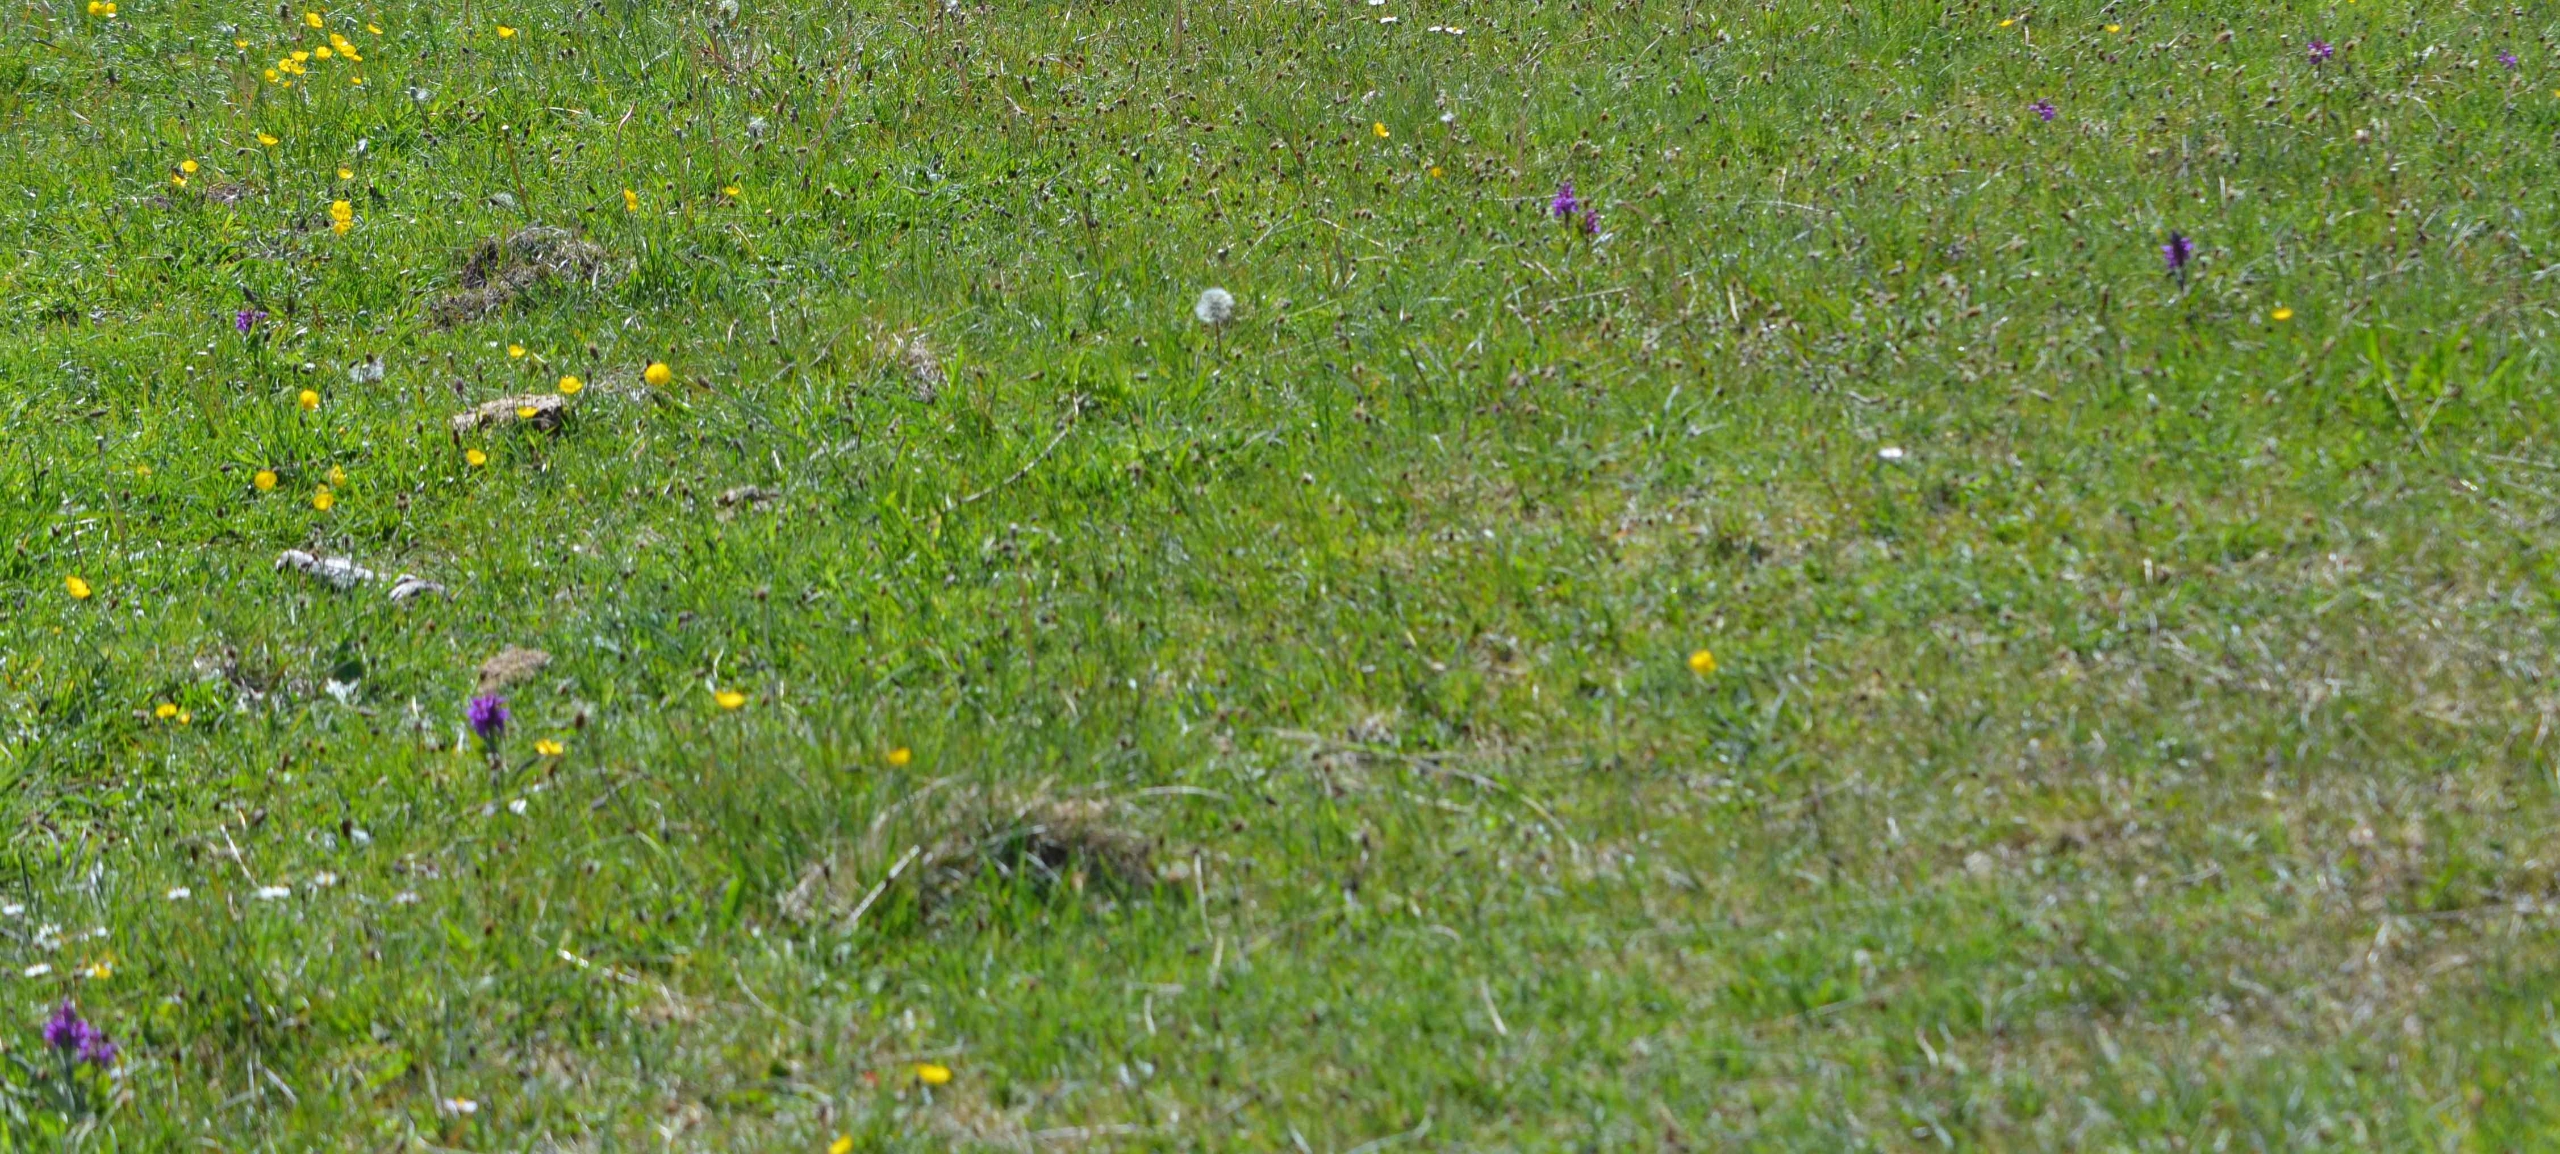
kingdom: Plantae
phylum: Tracheophyta
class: Liliopsida
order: Asparagales
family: Orchidaceae
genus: Dactylorhiza
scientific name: Dactylorhiza majalis
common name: Maj-gøgeurt
